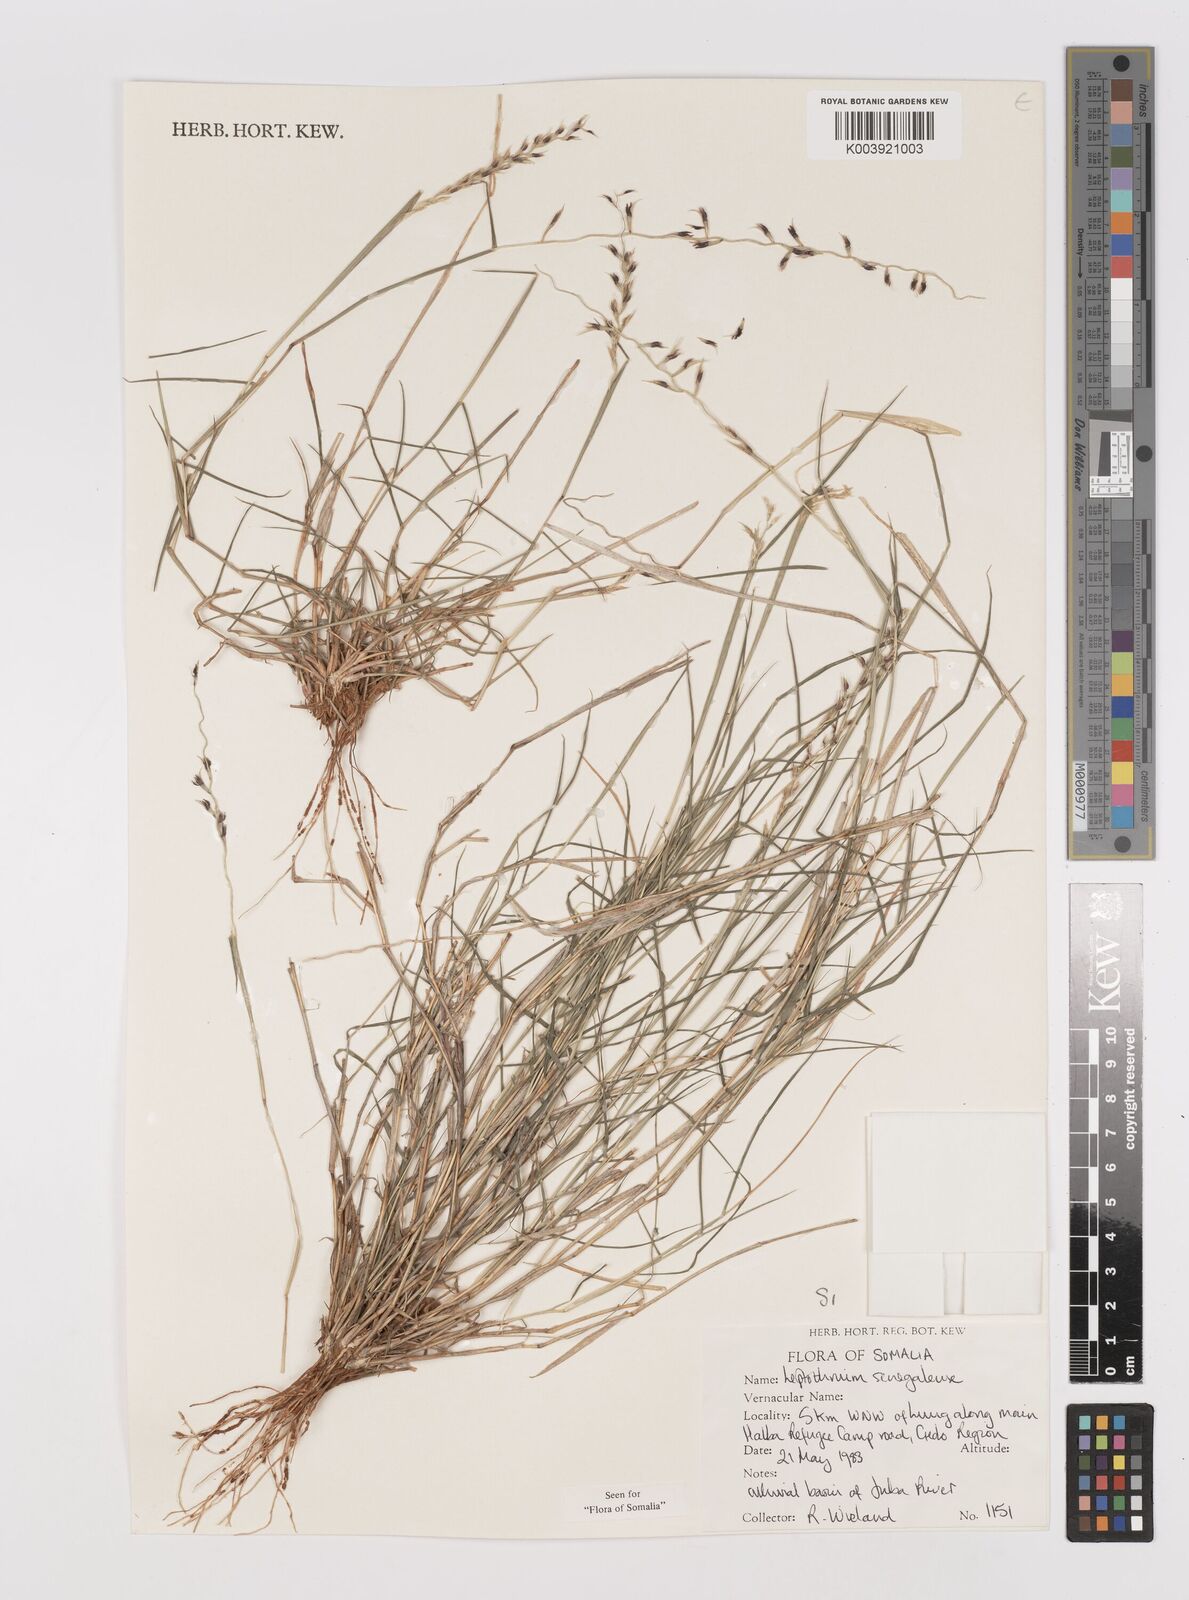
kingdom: Plantae
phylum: Tracheophyta
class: Liliopsida
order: Poales
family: Poaceae
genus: Leptothrium
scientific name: Leptothrium senegalense
